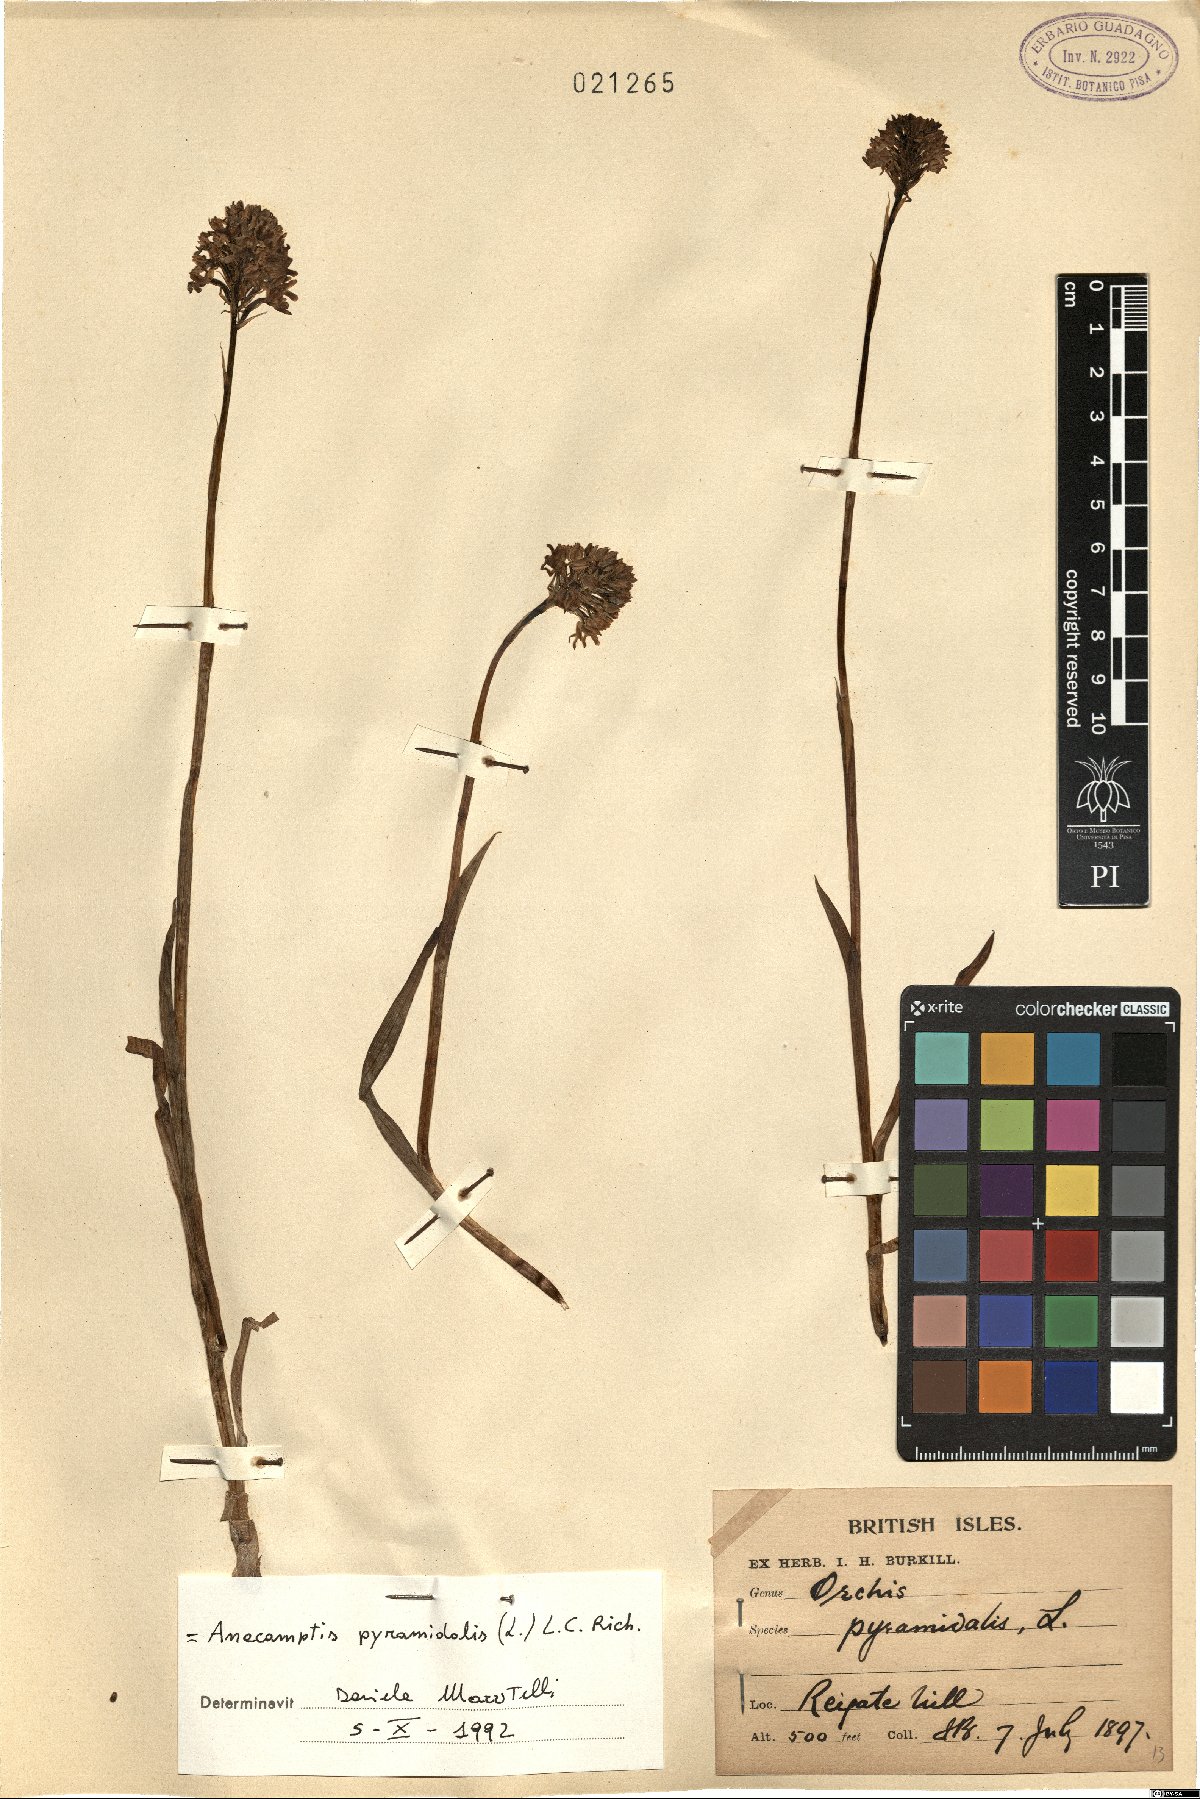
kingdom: Plantae
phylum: Tracheophyta
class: Liliopsida
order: Asparagales
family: Orchidaceae
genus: Anacamptis
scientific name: Anacamptis pyramidalis
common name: Pyramidal orchid
